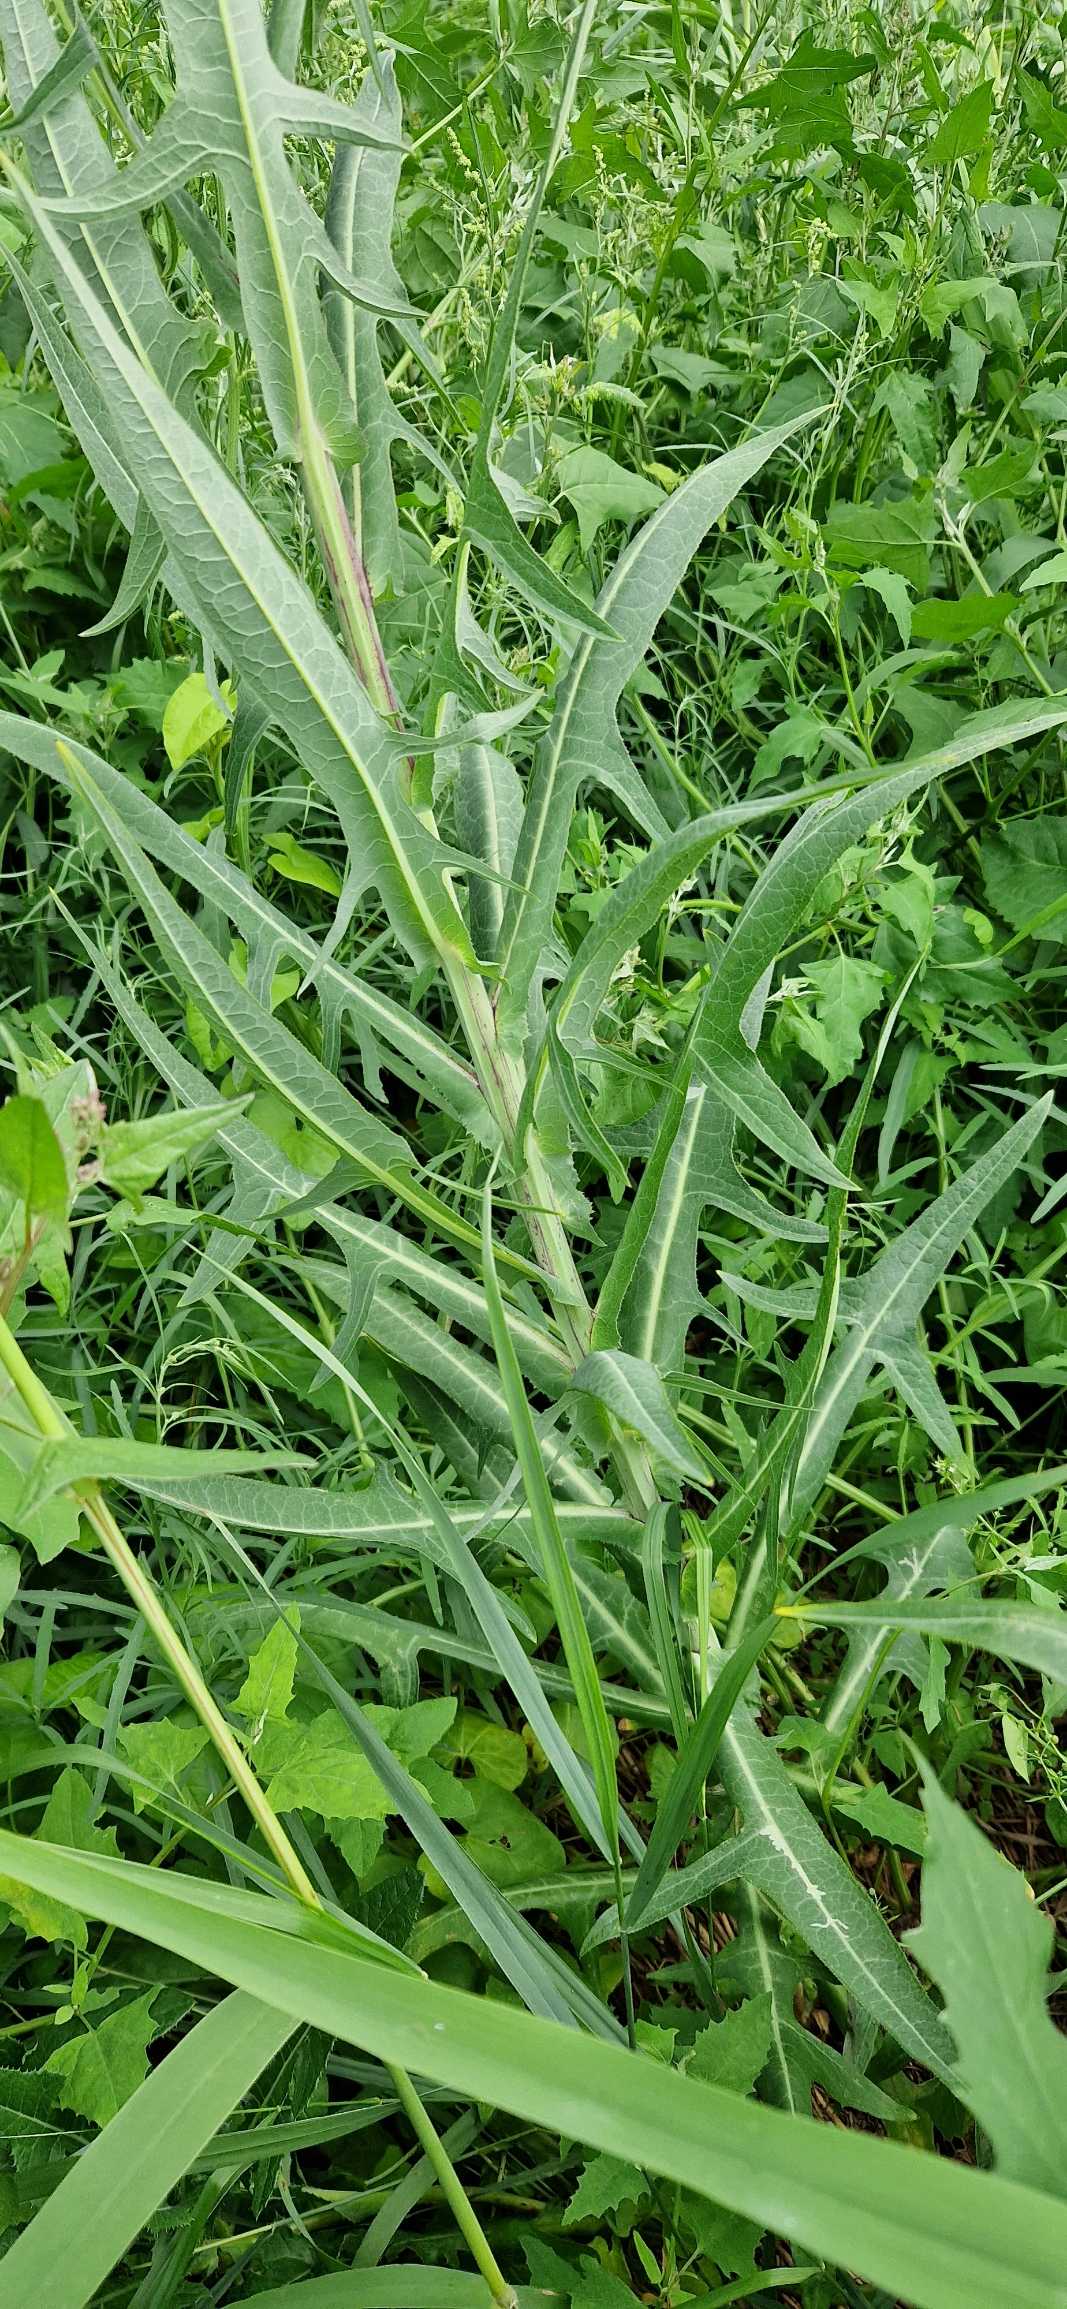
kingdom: Plantae
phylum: Tracheophyta
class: Magnoliopsida
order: Asterales
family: Asteraceae
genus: Sonchus
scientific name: Sonchus palustris
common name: Kær-svinemælk
